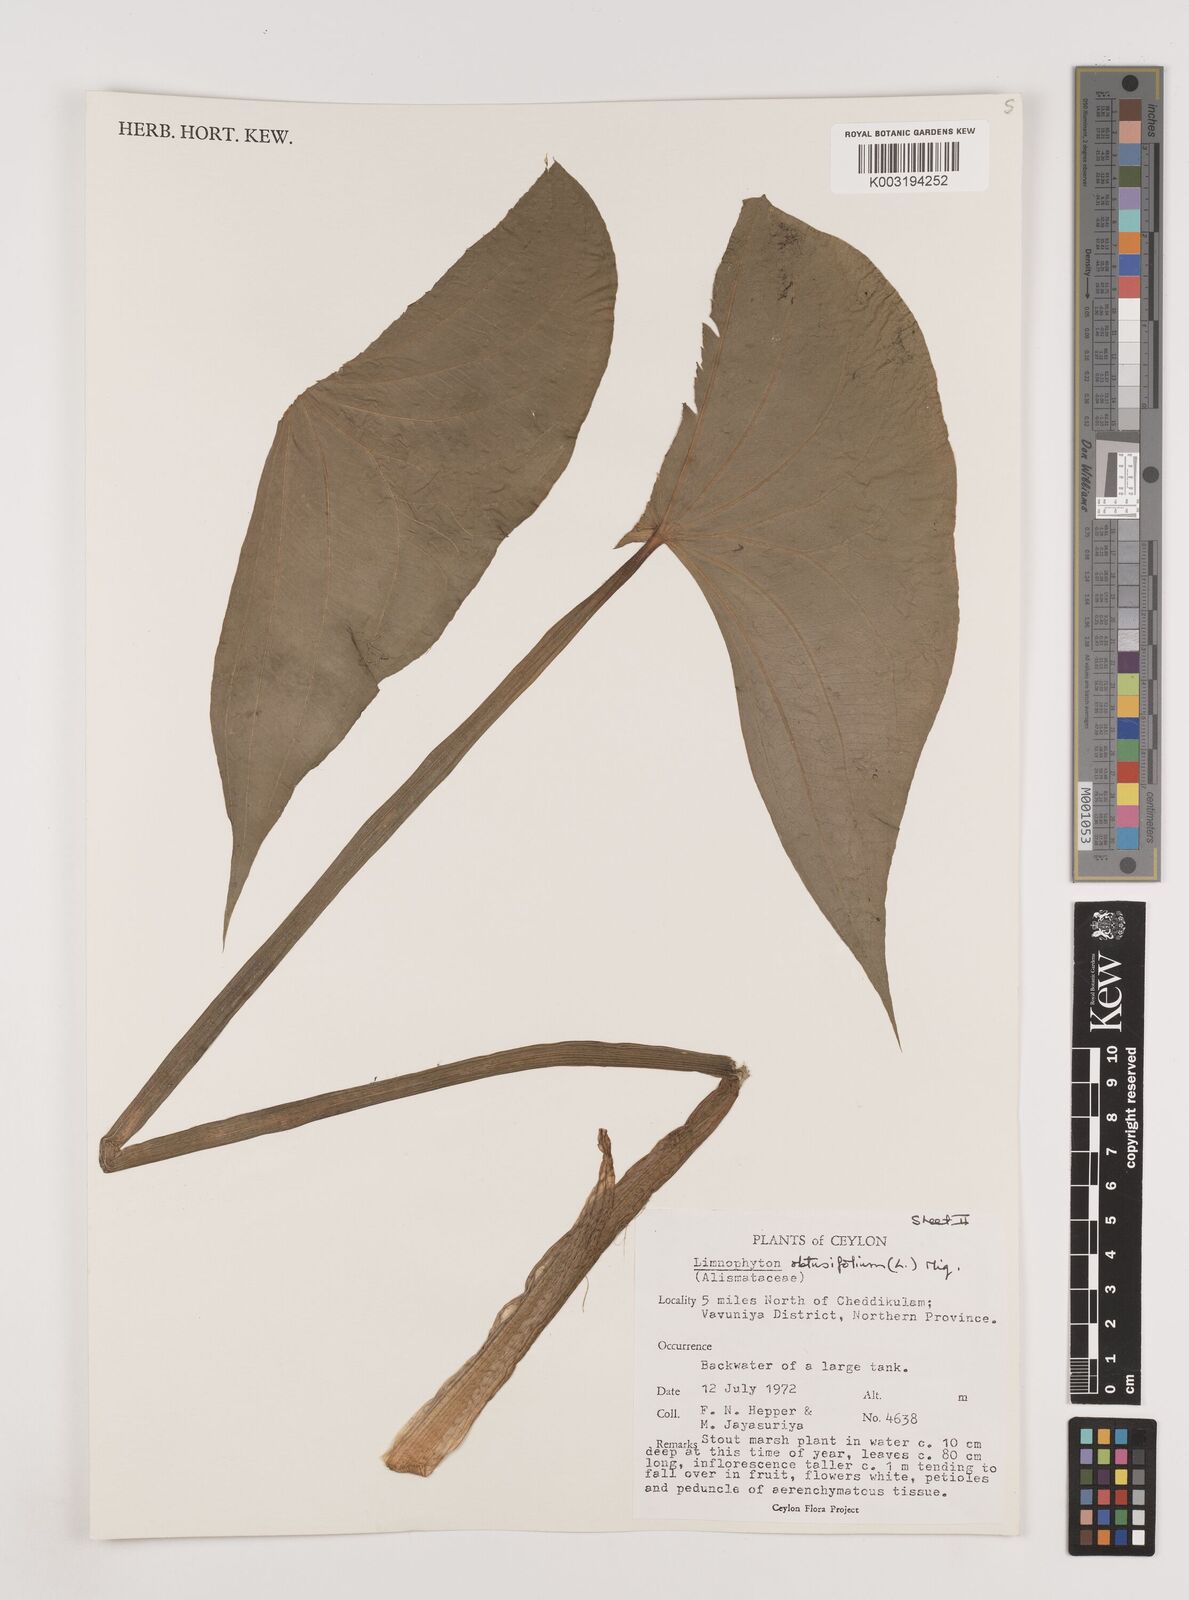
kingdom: Plantae
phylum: Tracheophyta
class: Liliopsida
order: Alismatales
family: Alismataceae
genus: Limnophyton
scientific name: Limnophyton obtusifolium
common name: Arrow head
